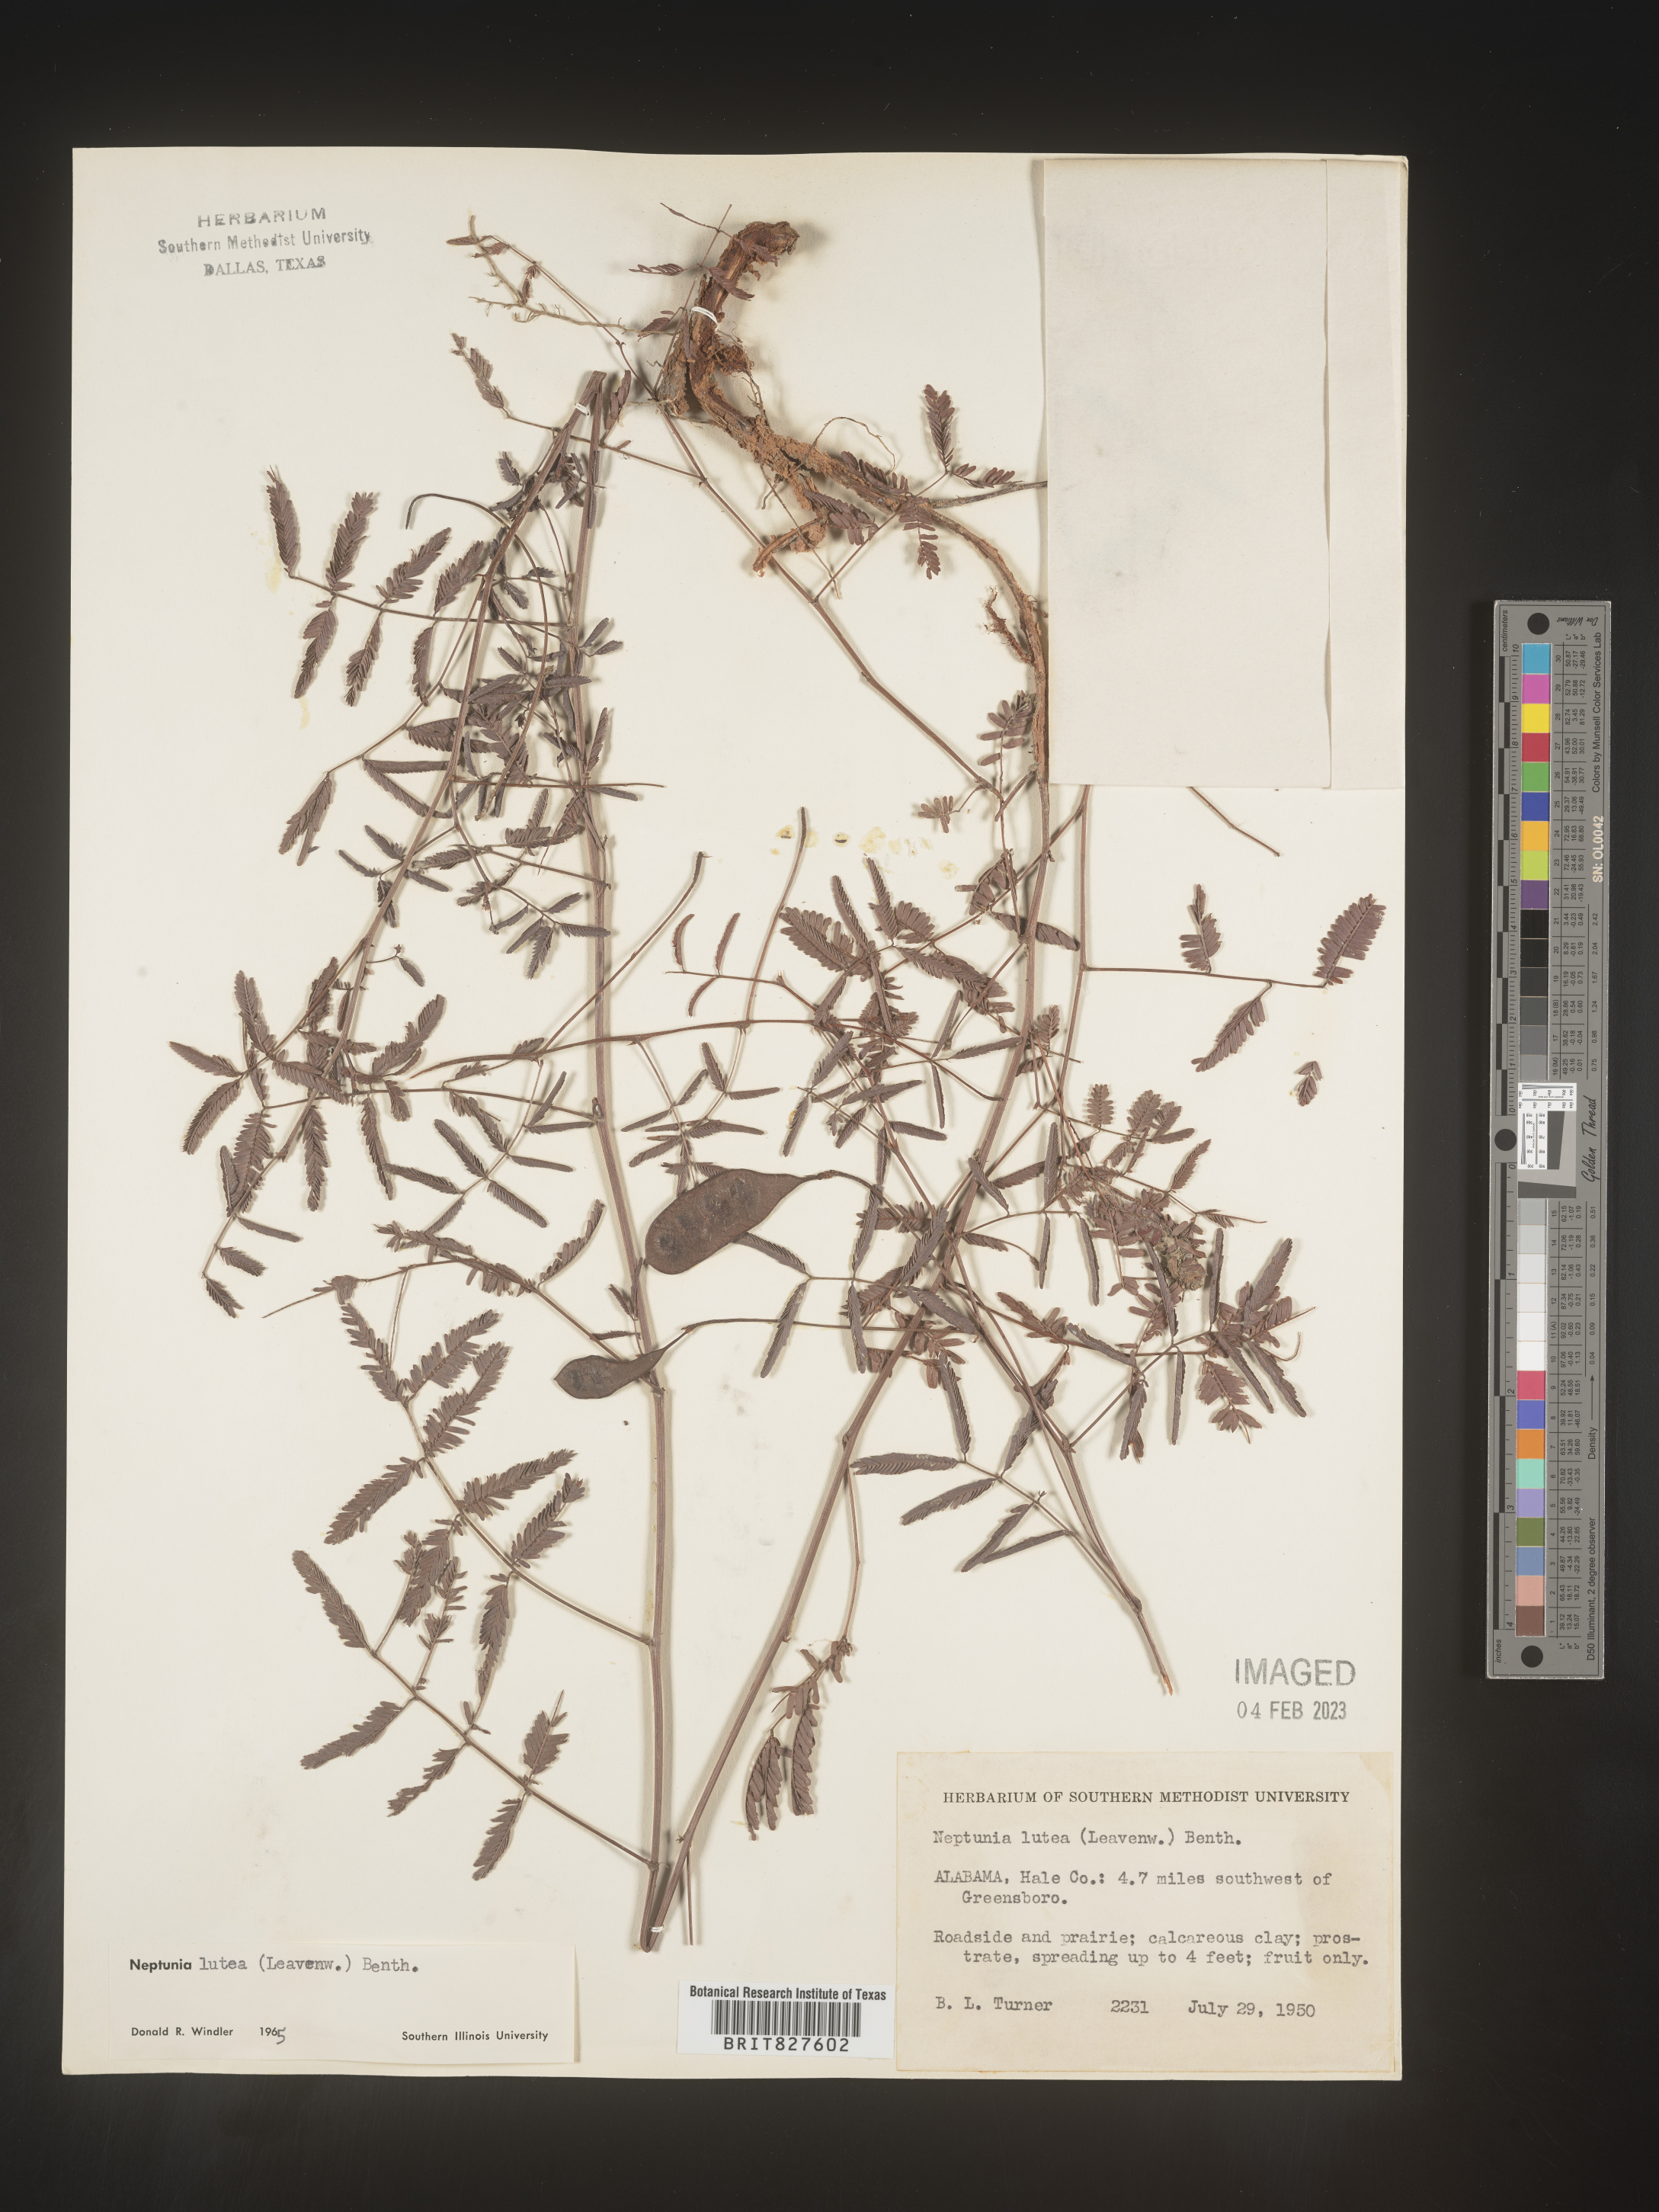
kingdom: Plantae
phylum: Tracheophyta
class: Magnoliopsida
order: Fabales
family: Fabaceae
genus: Neptunia
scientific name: Neptunia lutea
